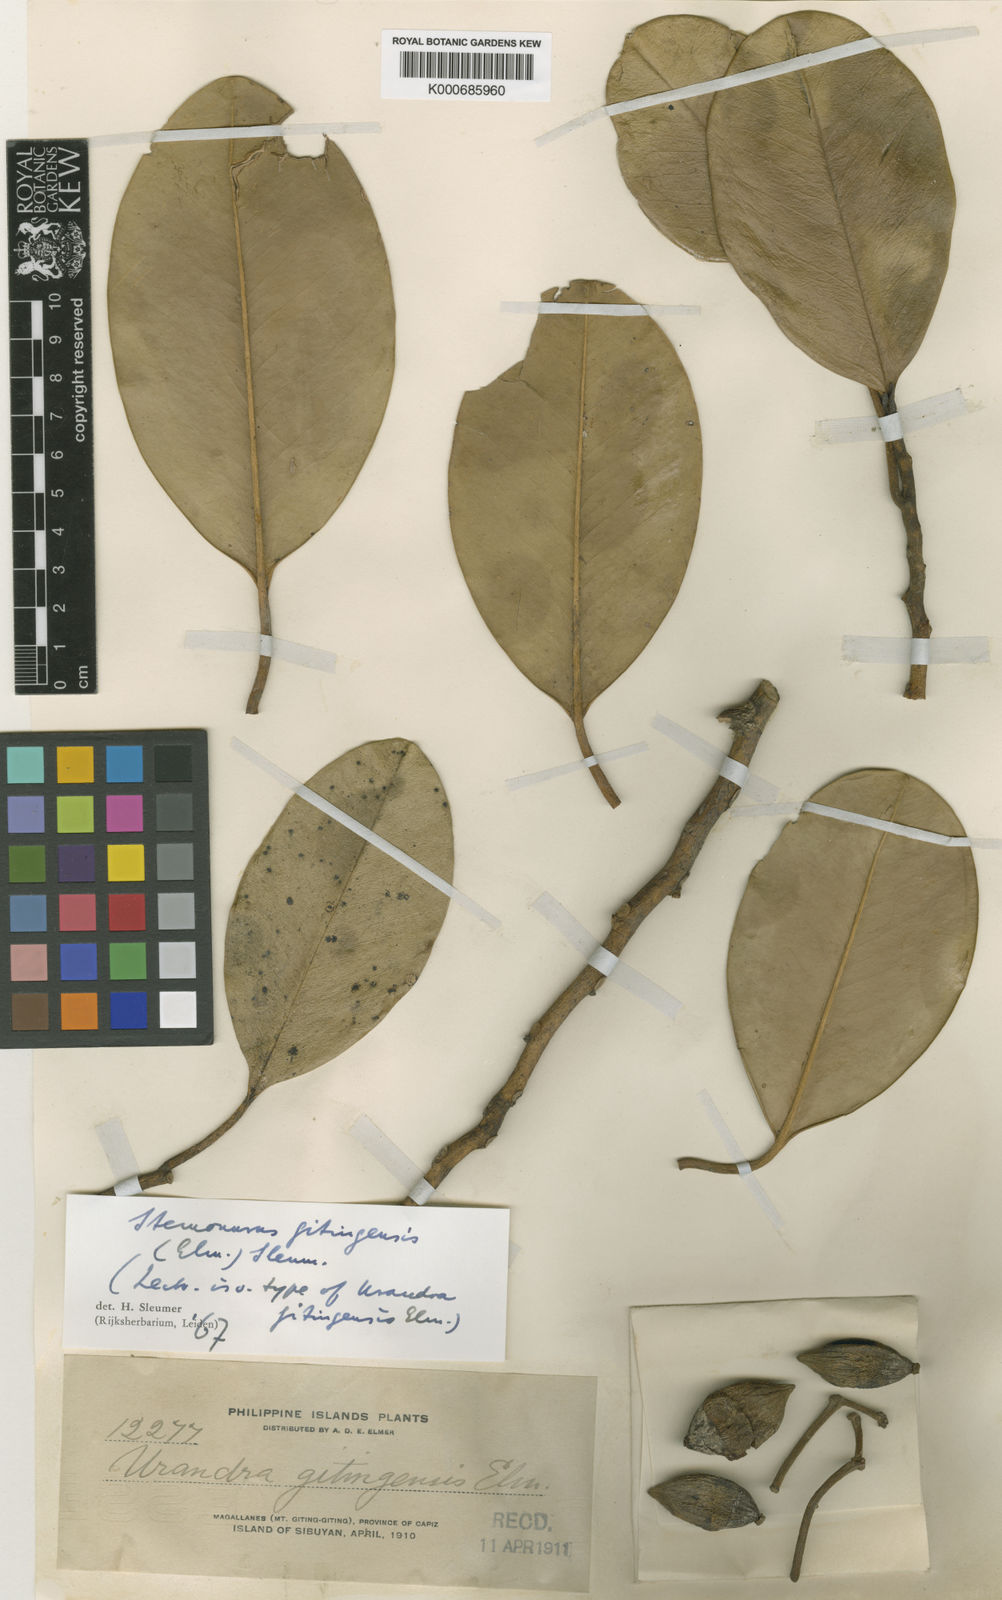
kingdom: Plantae
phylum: Tracheophyta
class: Magnoliopsida
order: Cardiopteridales
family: Stemonuraceae
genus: Stemonurus
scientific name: Stemonurus gitingensis
